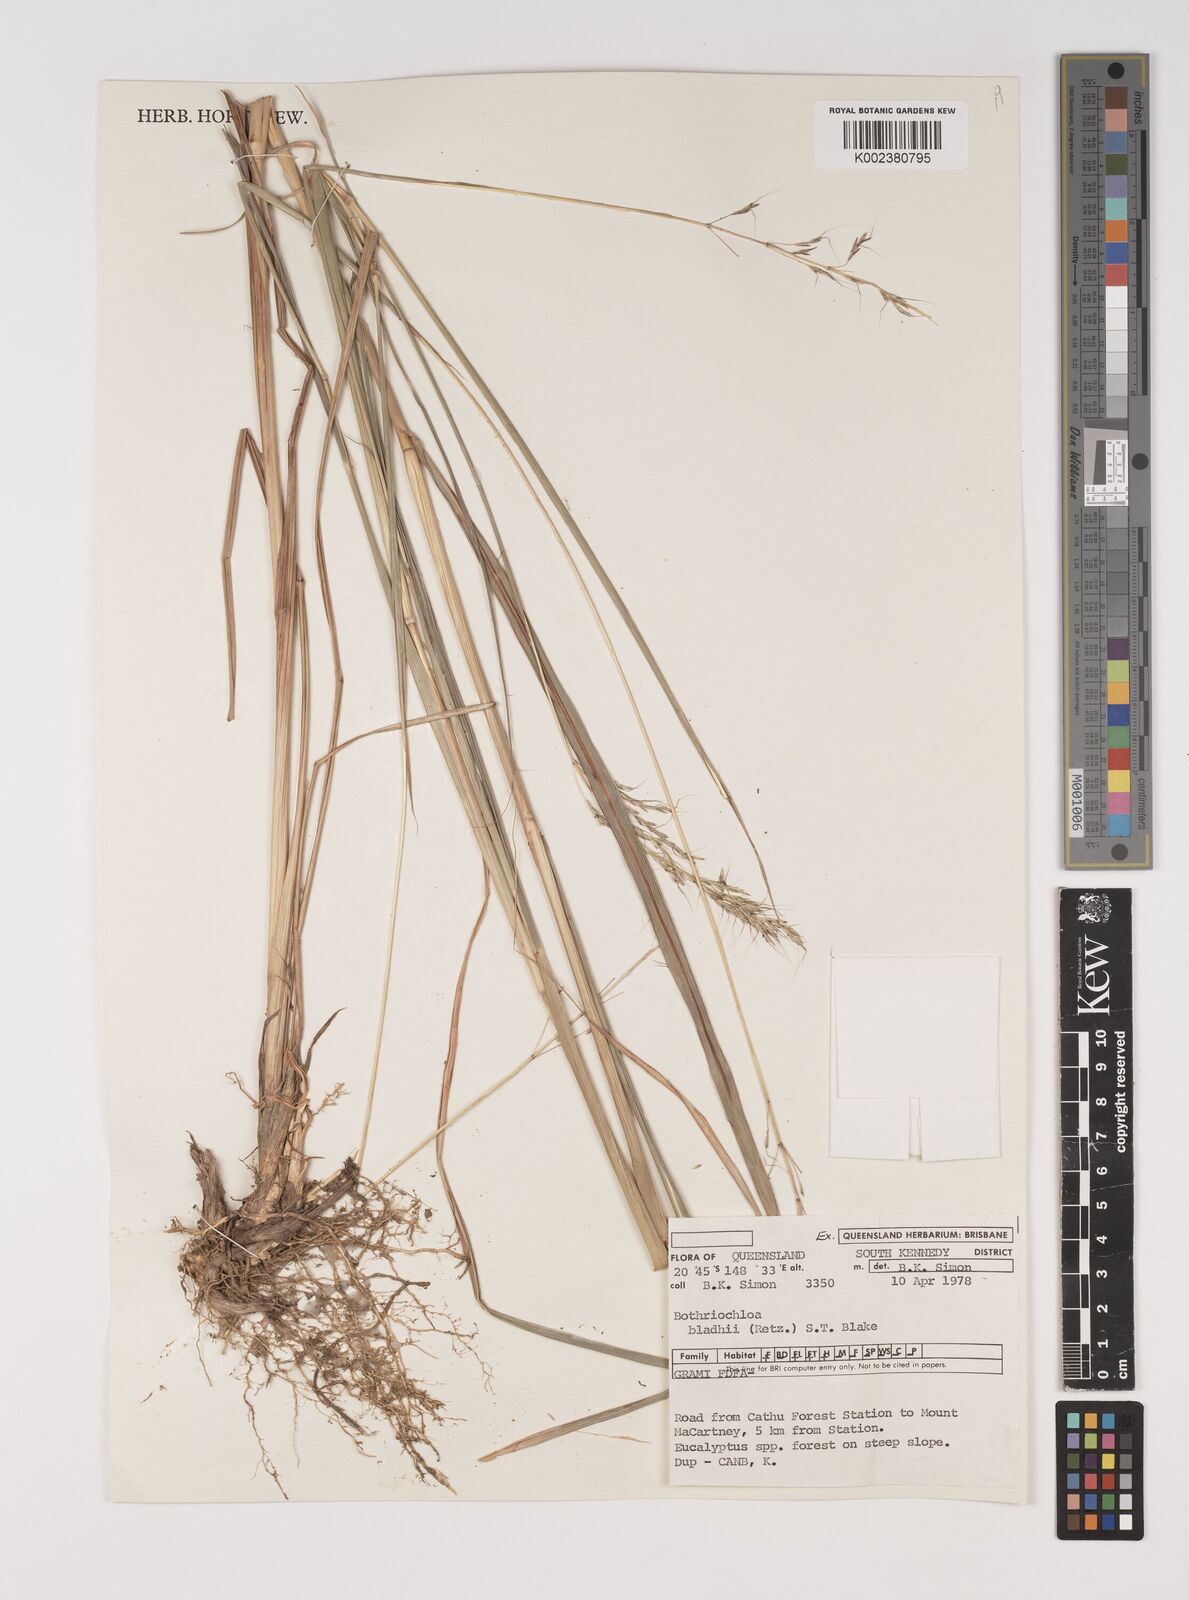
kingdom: Plantae
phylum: Tracheophyta
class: Liliopsida
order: Poales
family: Poaceae
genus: Bothriochloa
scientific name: Bothriochloa bladhii
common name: Caucasian bluestem
